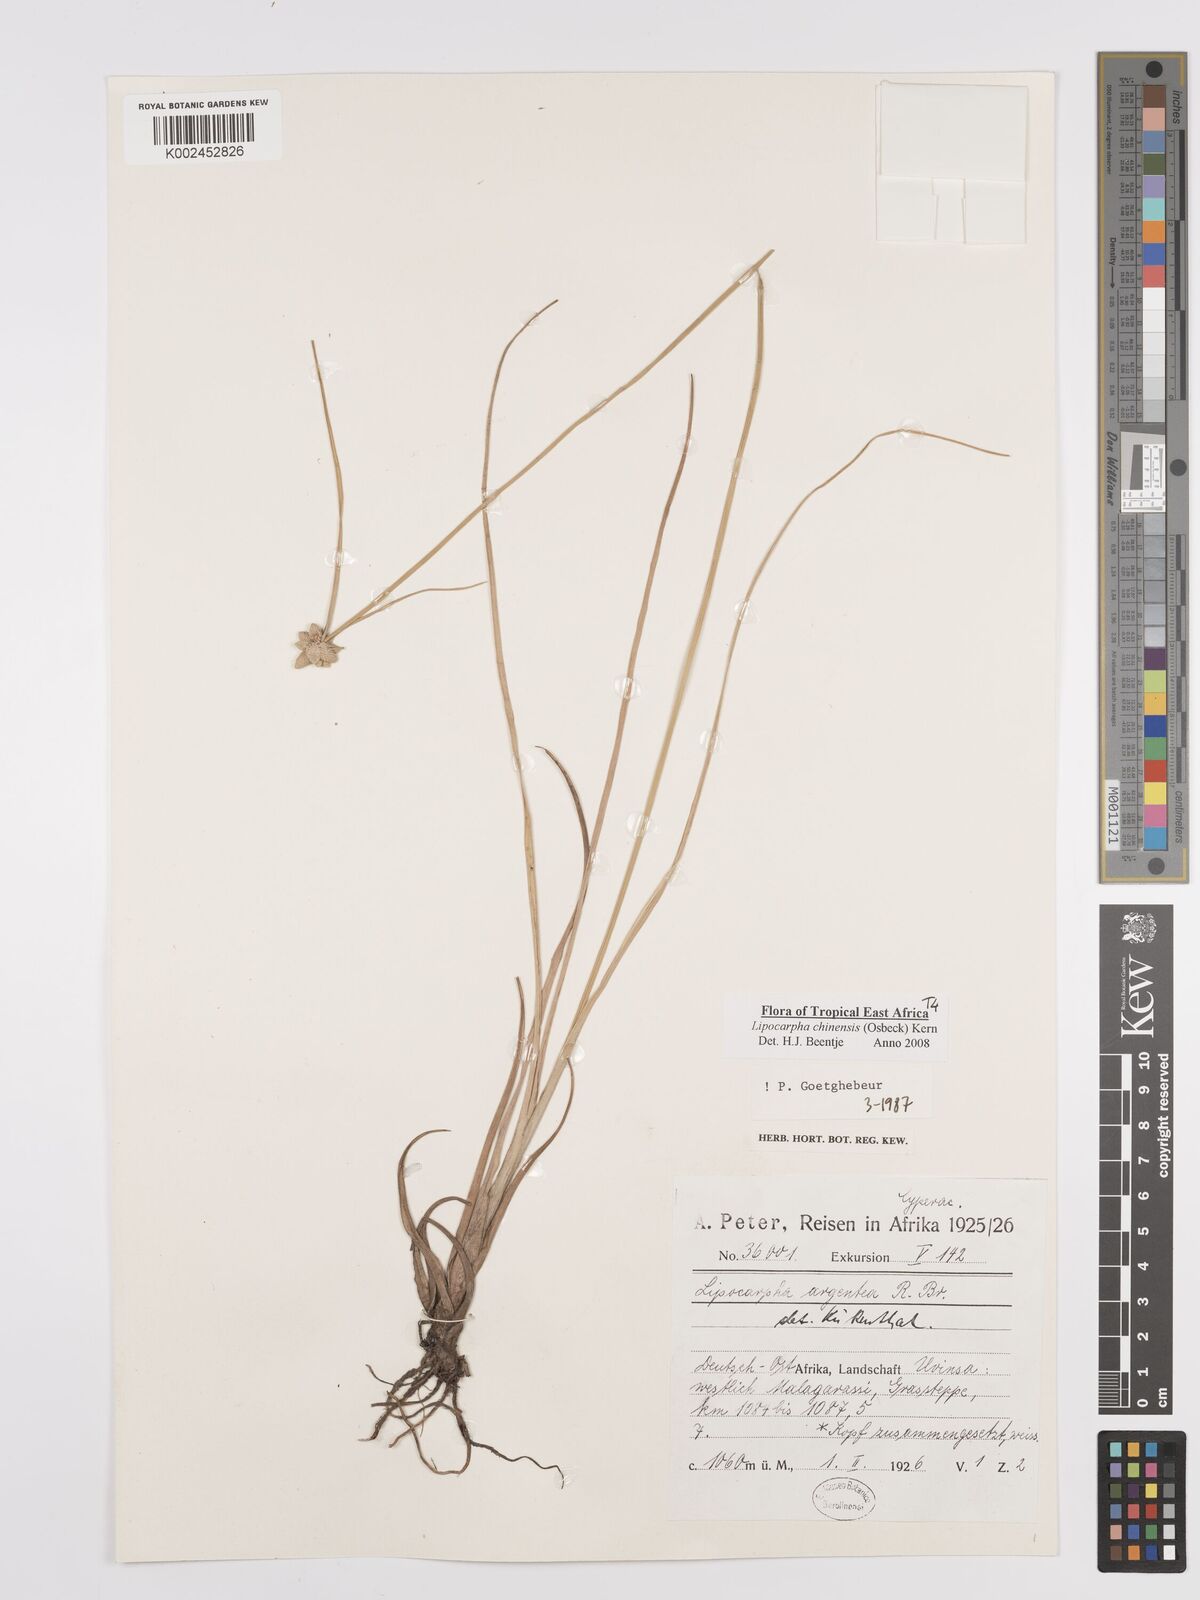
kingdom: Plantae
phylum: Tracheophyta
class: Liliopsida
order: Poales
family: Cyperaceae
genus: Cyperus
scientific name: Cyperus
